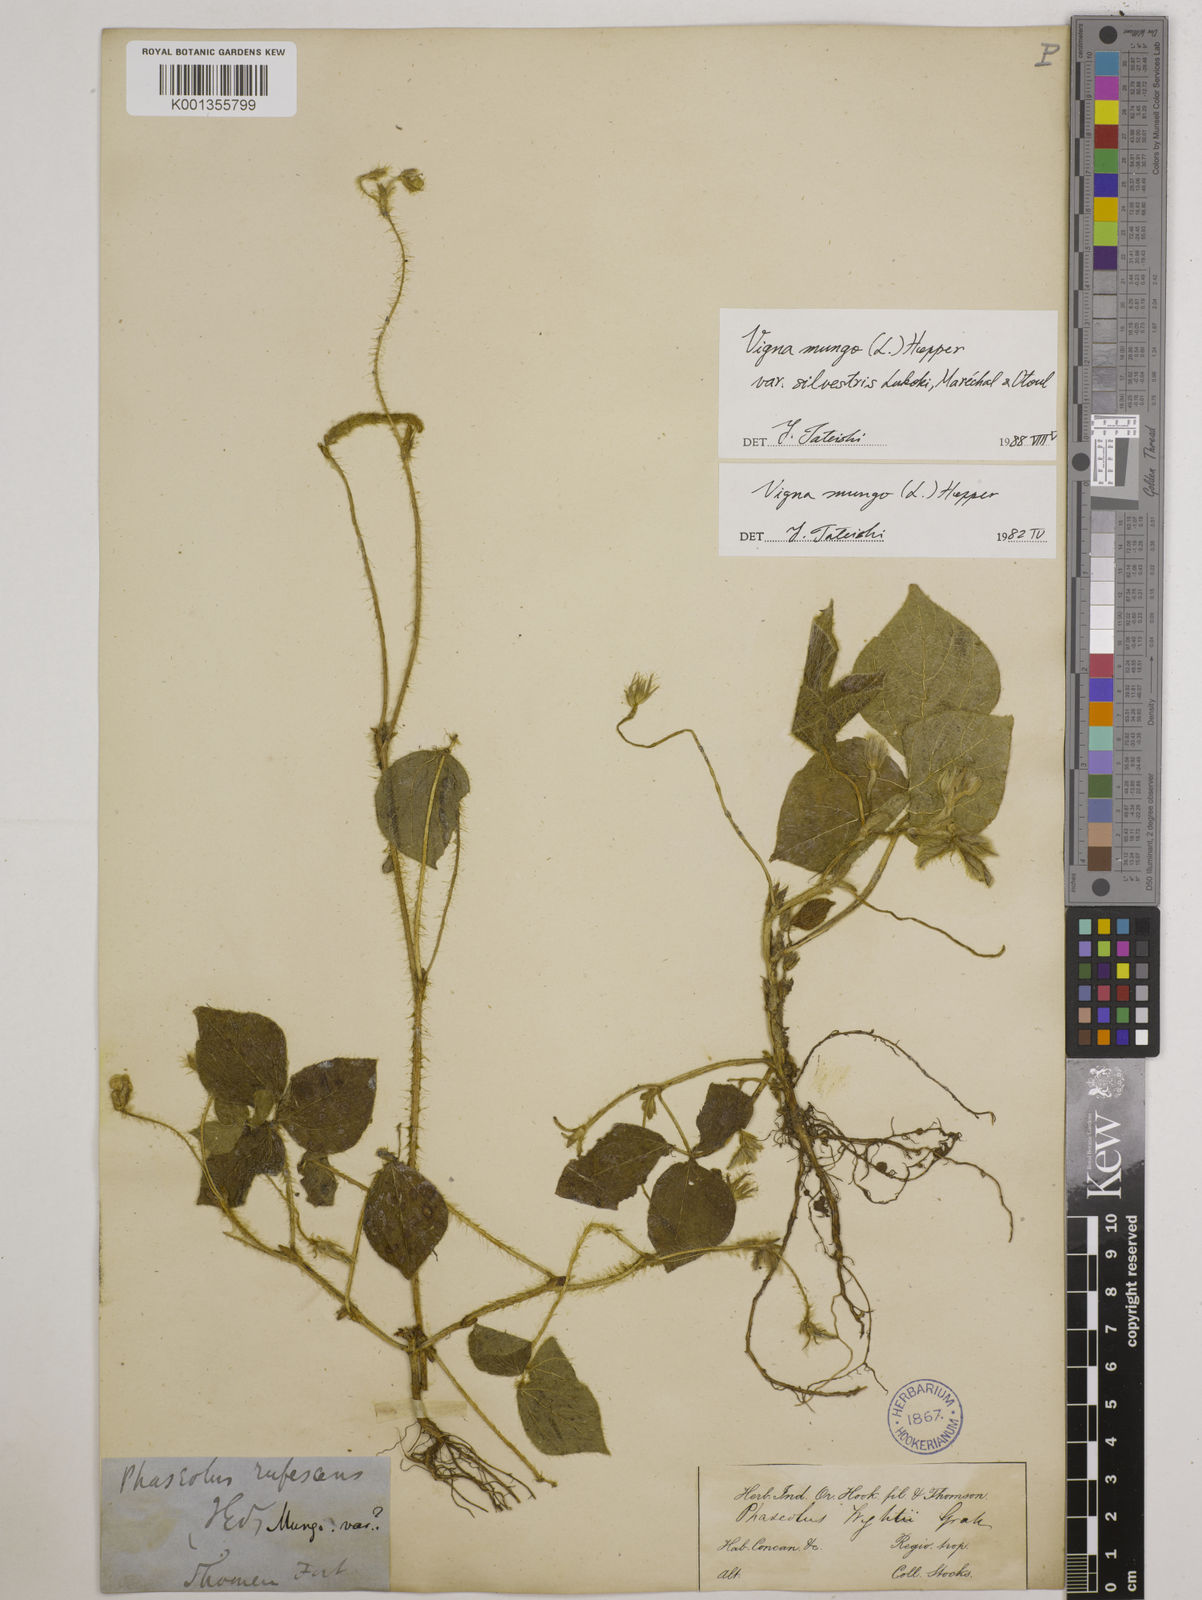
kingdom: Plantae
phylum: Tracheophyta
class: Magnoliopsida
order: Fabales
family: Fabaceae
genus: Vigna
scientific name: Vigna mungo
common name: Black gram
